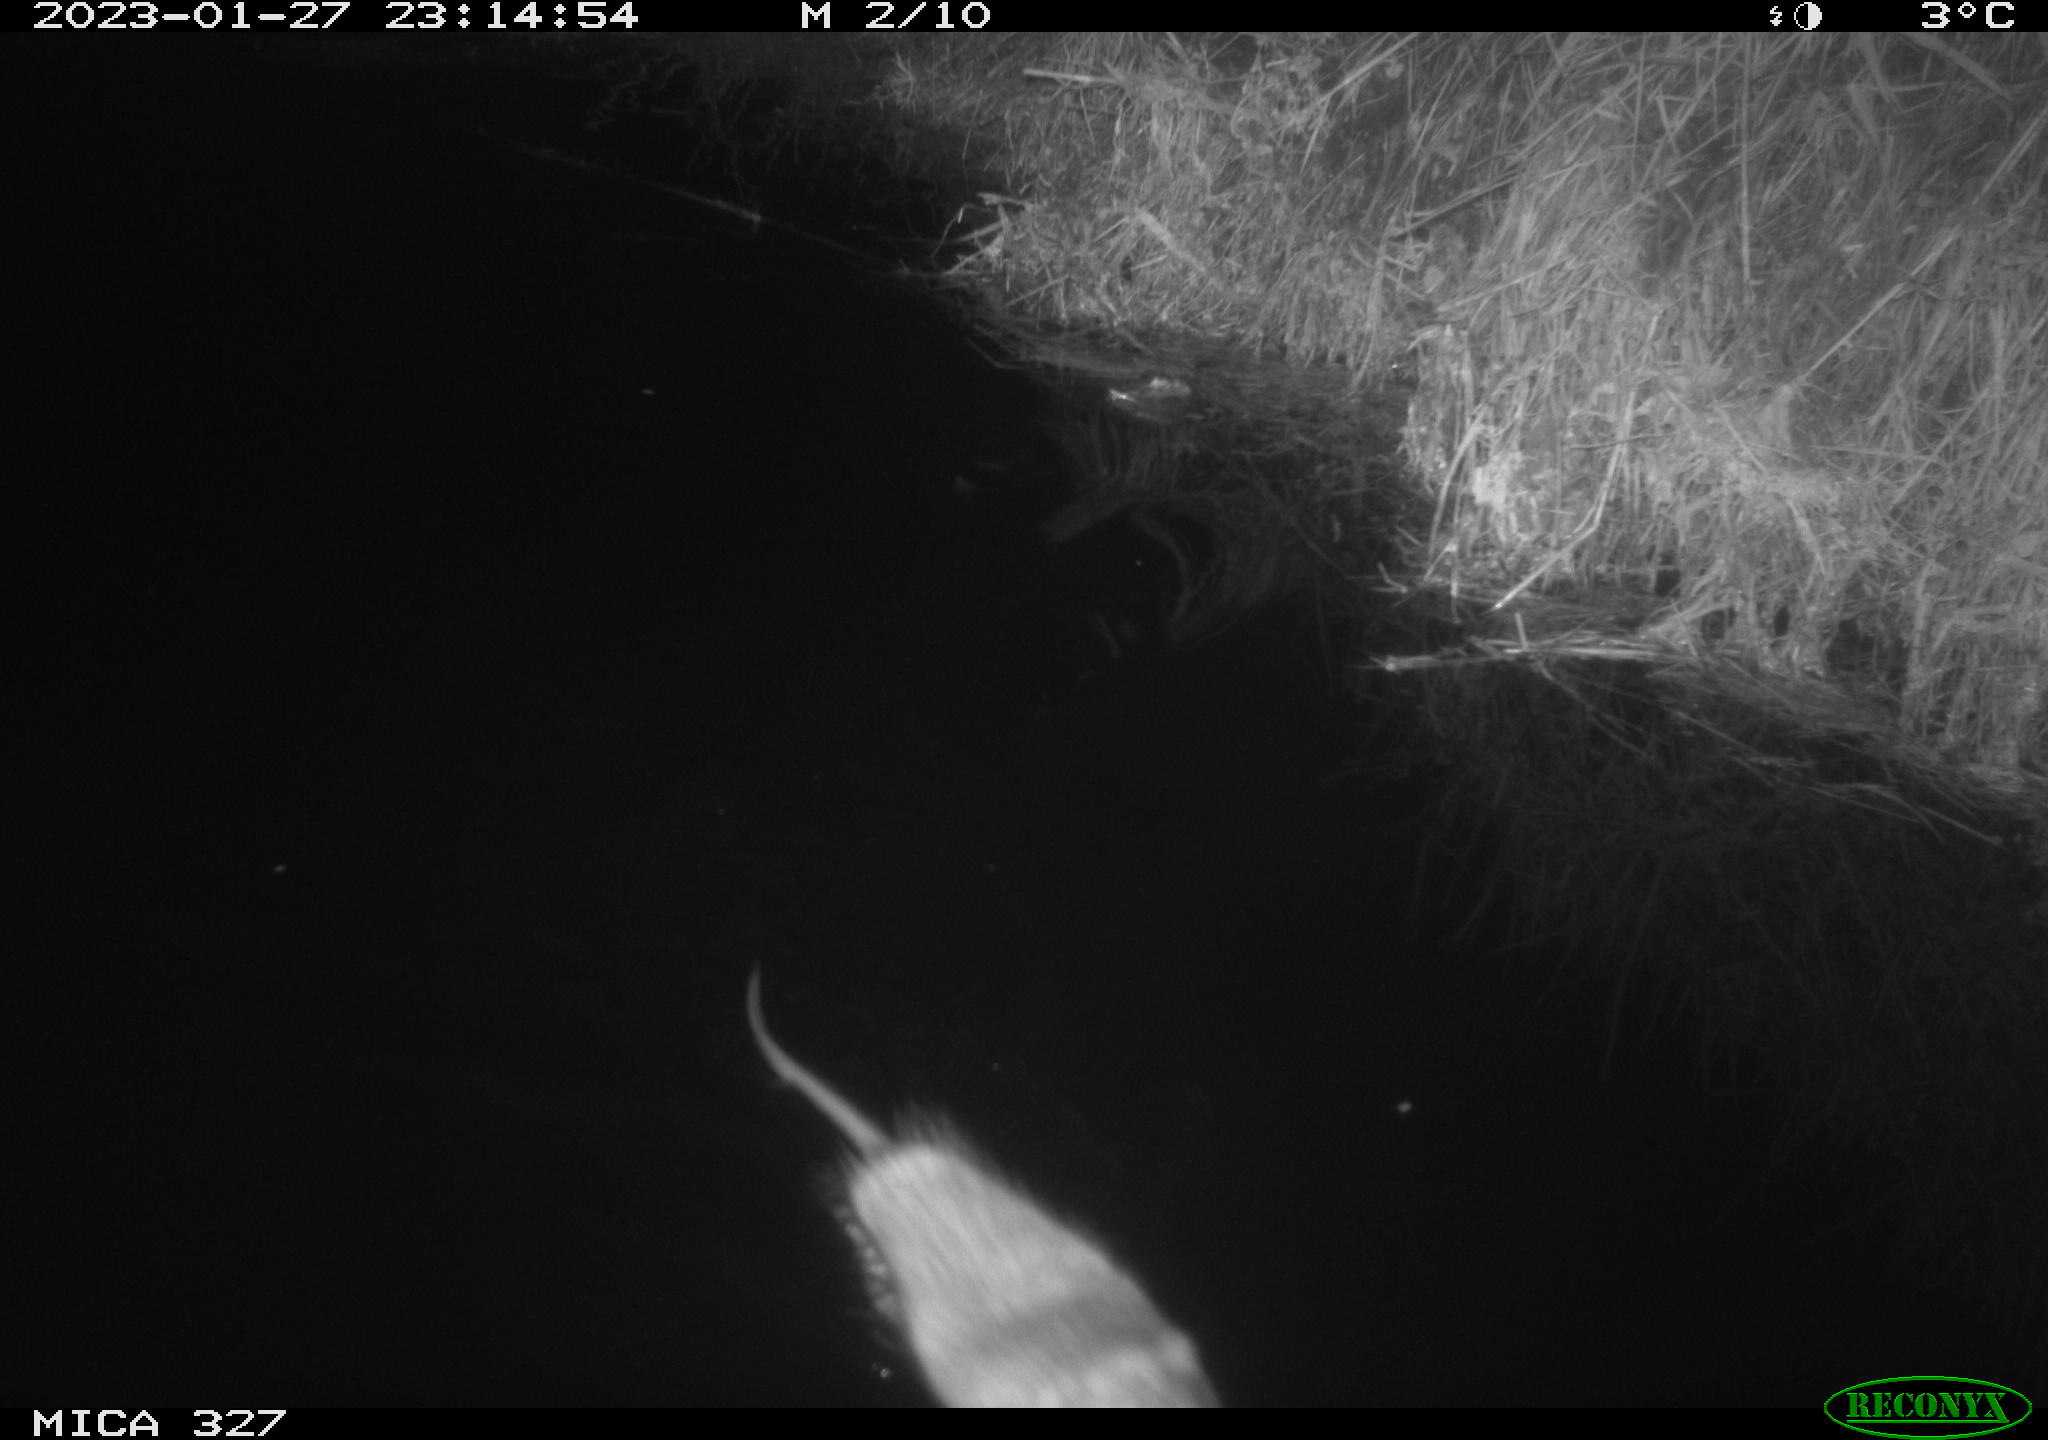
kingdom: Animalia
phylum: Chordata
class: Mammalia
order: Rodentia
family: Cricetidae
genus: Ondatra
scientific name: Ondatra zibethicus
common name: Muskrat
